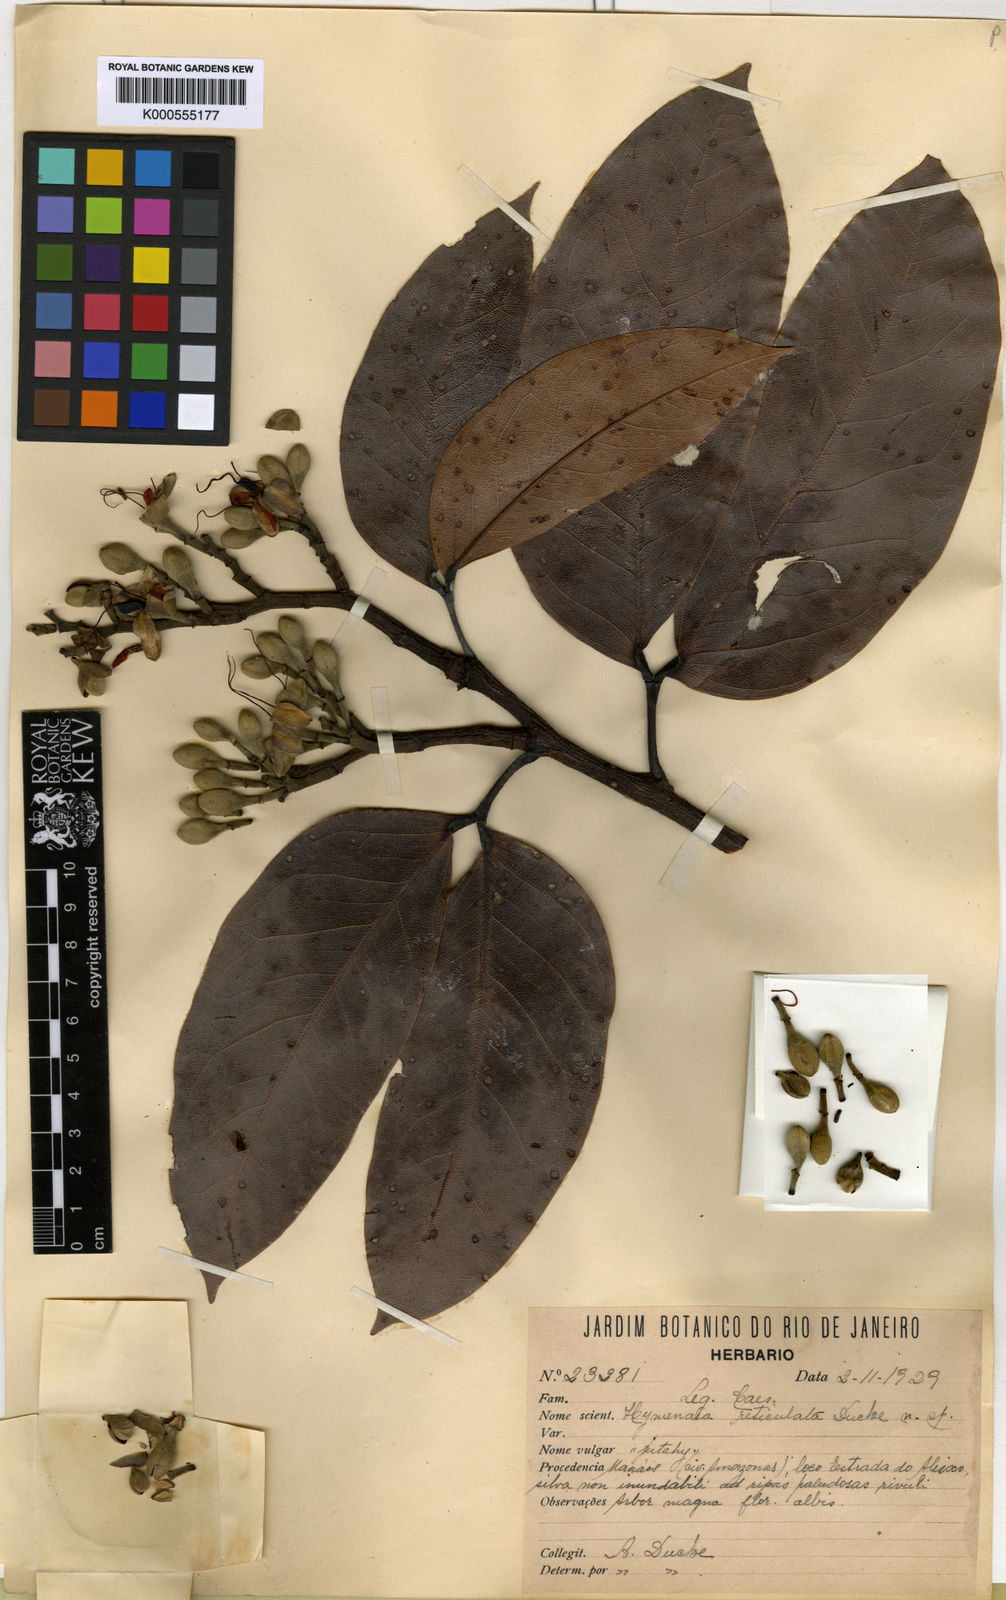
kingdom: Plantae
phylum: Tracheophyta
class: Magnoliopsida
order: Fabales
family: Fabaceae
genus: Hymenaea
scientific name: Hymenaea reticulata
